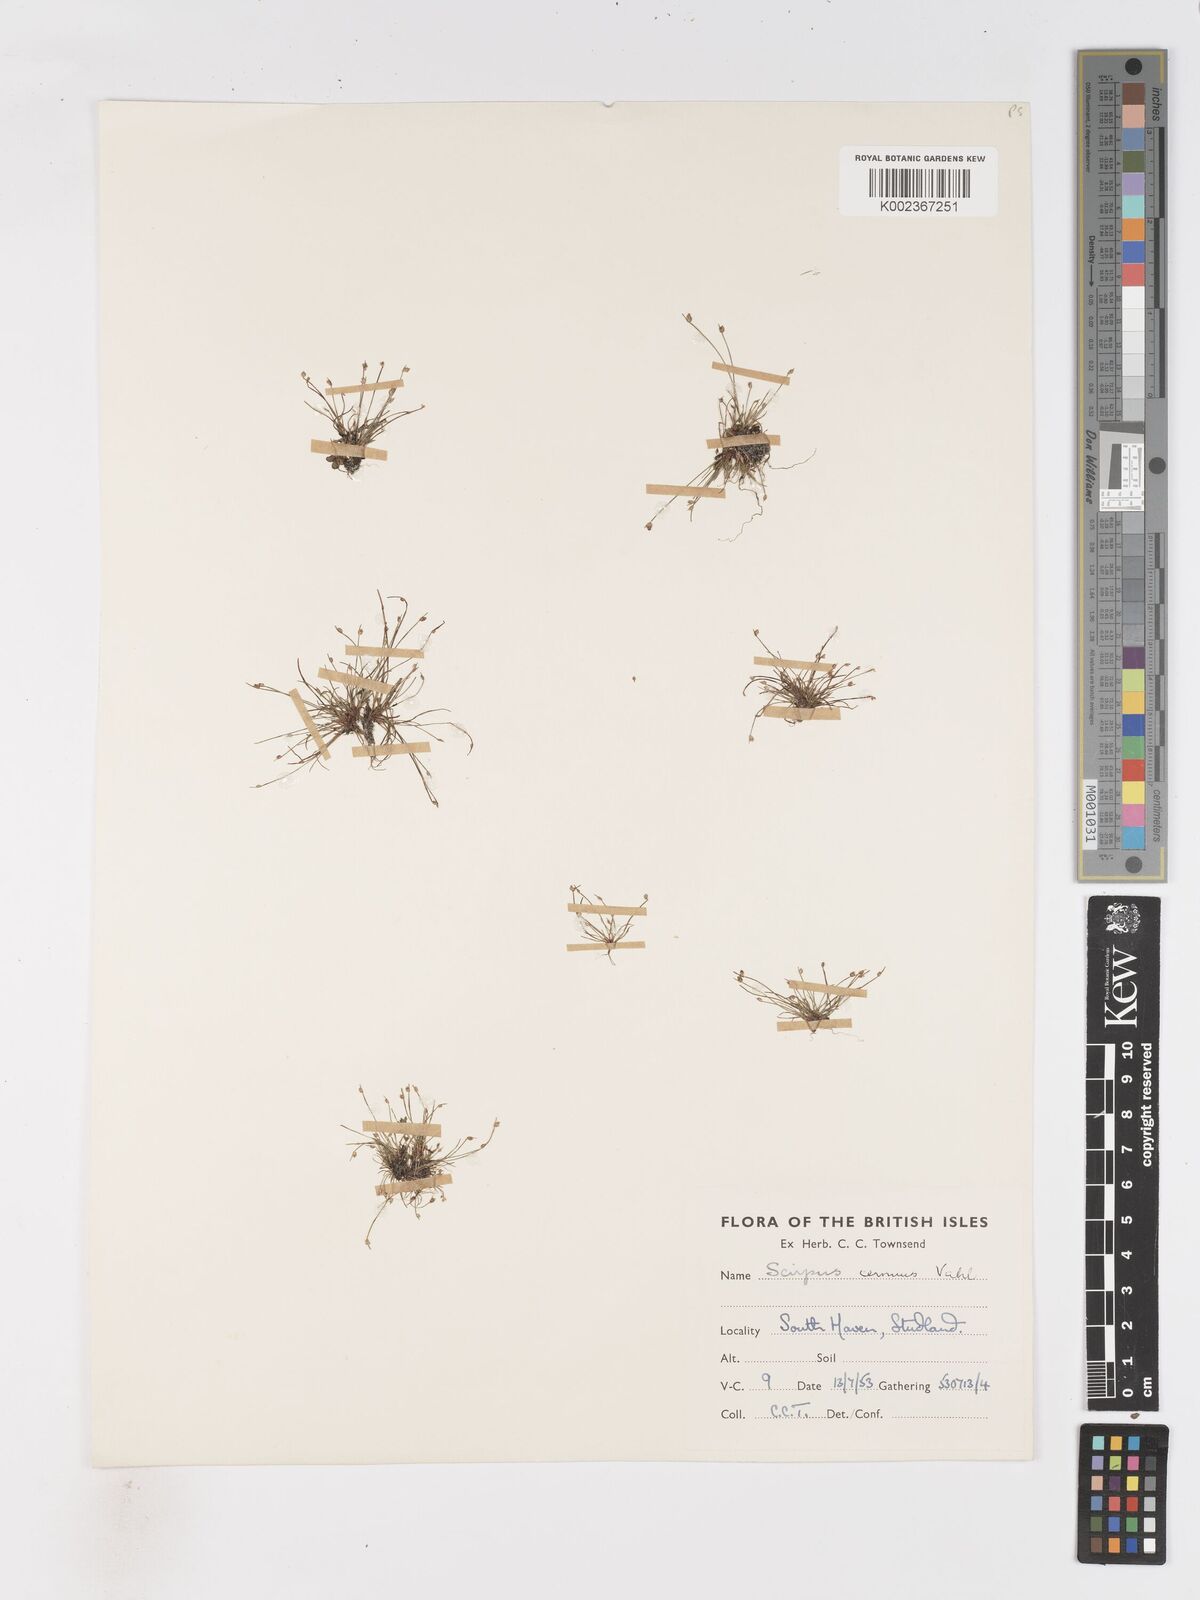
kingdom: Plantae
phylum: Tracheophyta
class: Liliopsida
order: Poales
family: Cyperaceae
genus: Isolepis
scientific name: Isolepis cernua
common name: Slender club-rush
